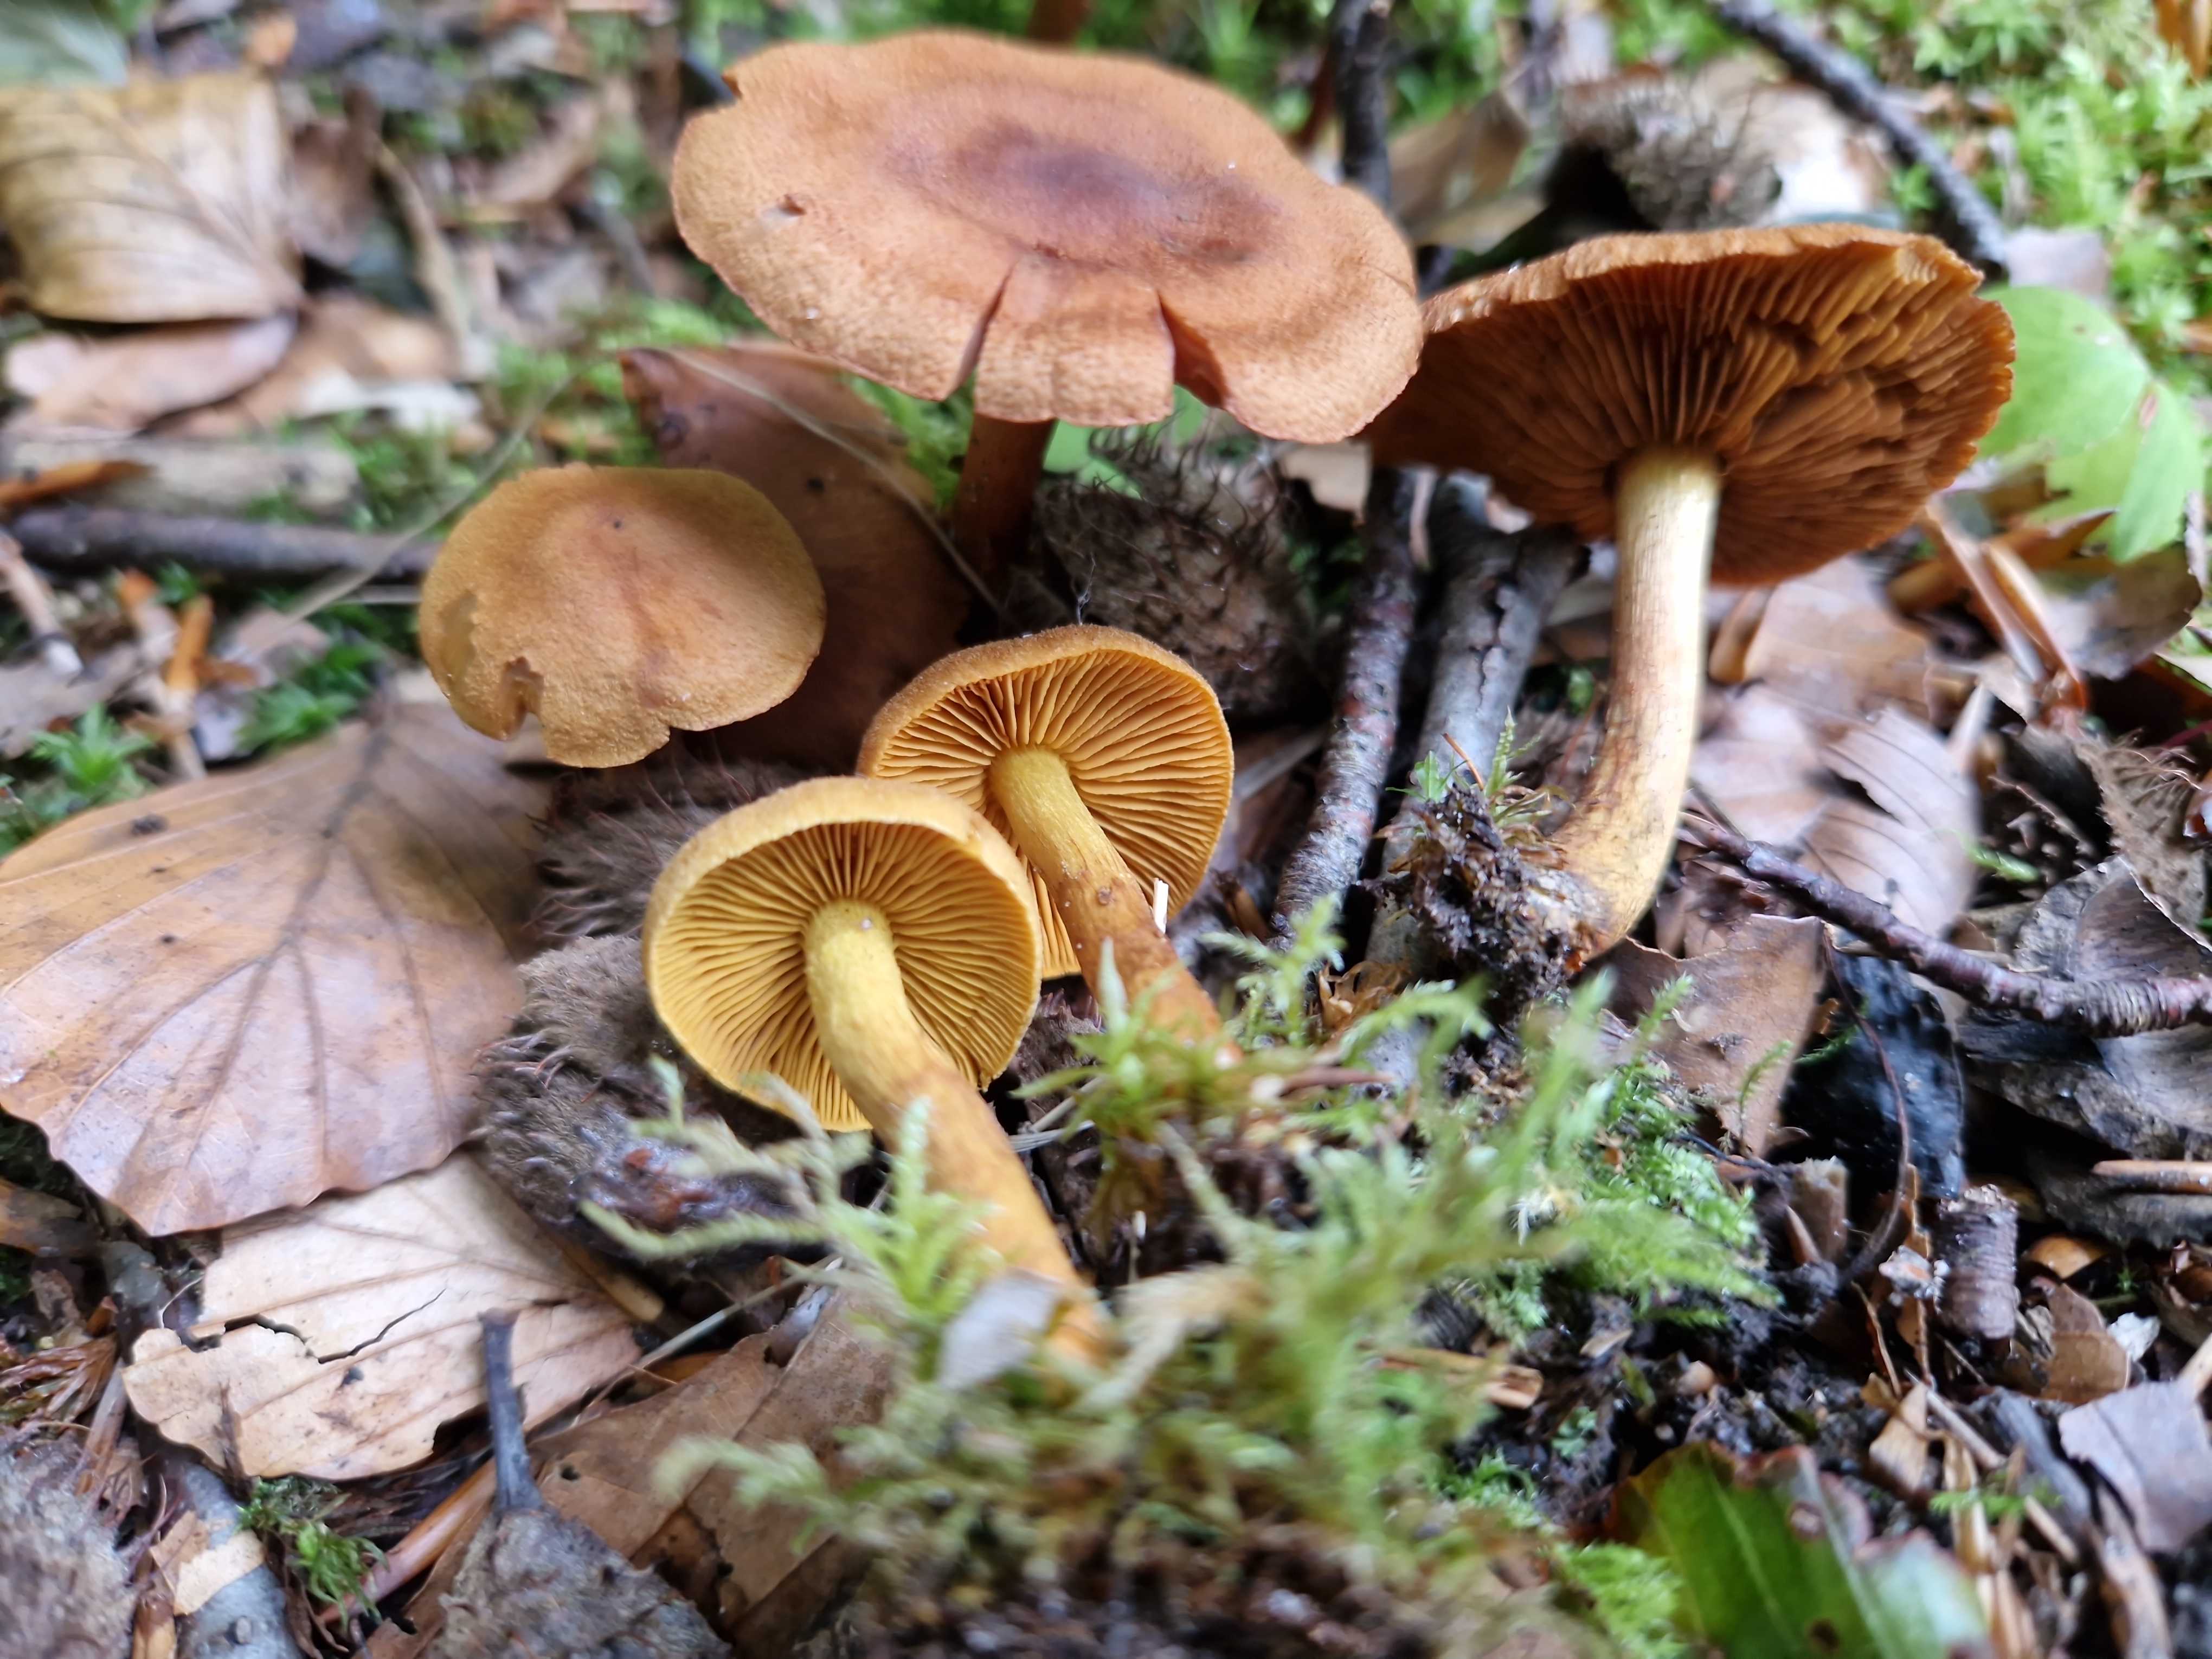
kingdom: Fungi
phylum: Basidiomycota
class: Agaricomycetes
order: Agaricales
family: Cortinariaceae
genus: Cortinarius
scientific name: Cortinarius cinnamomeus
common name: kanel-slørhat
